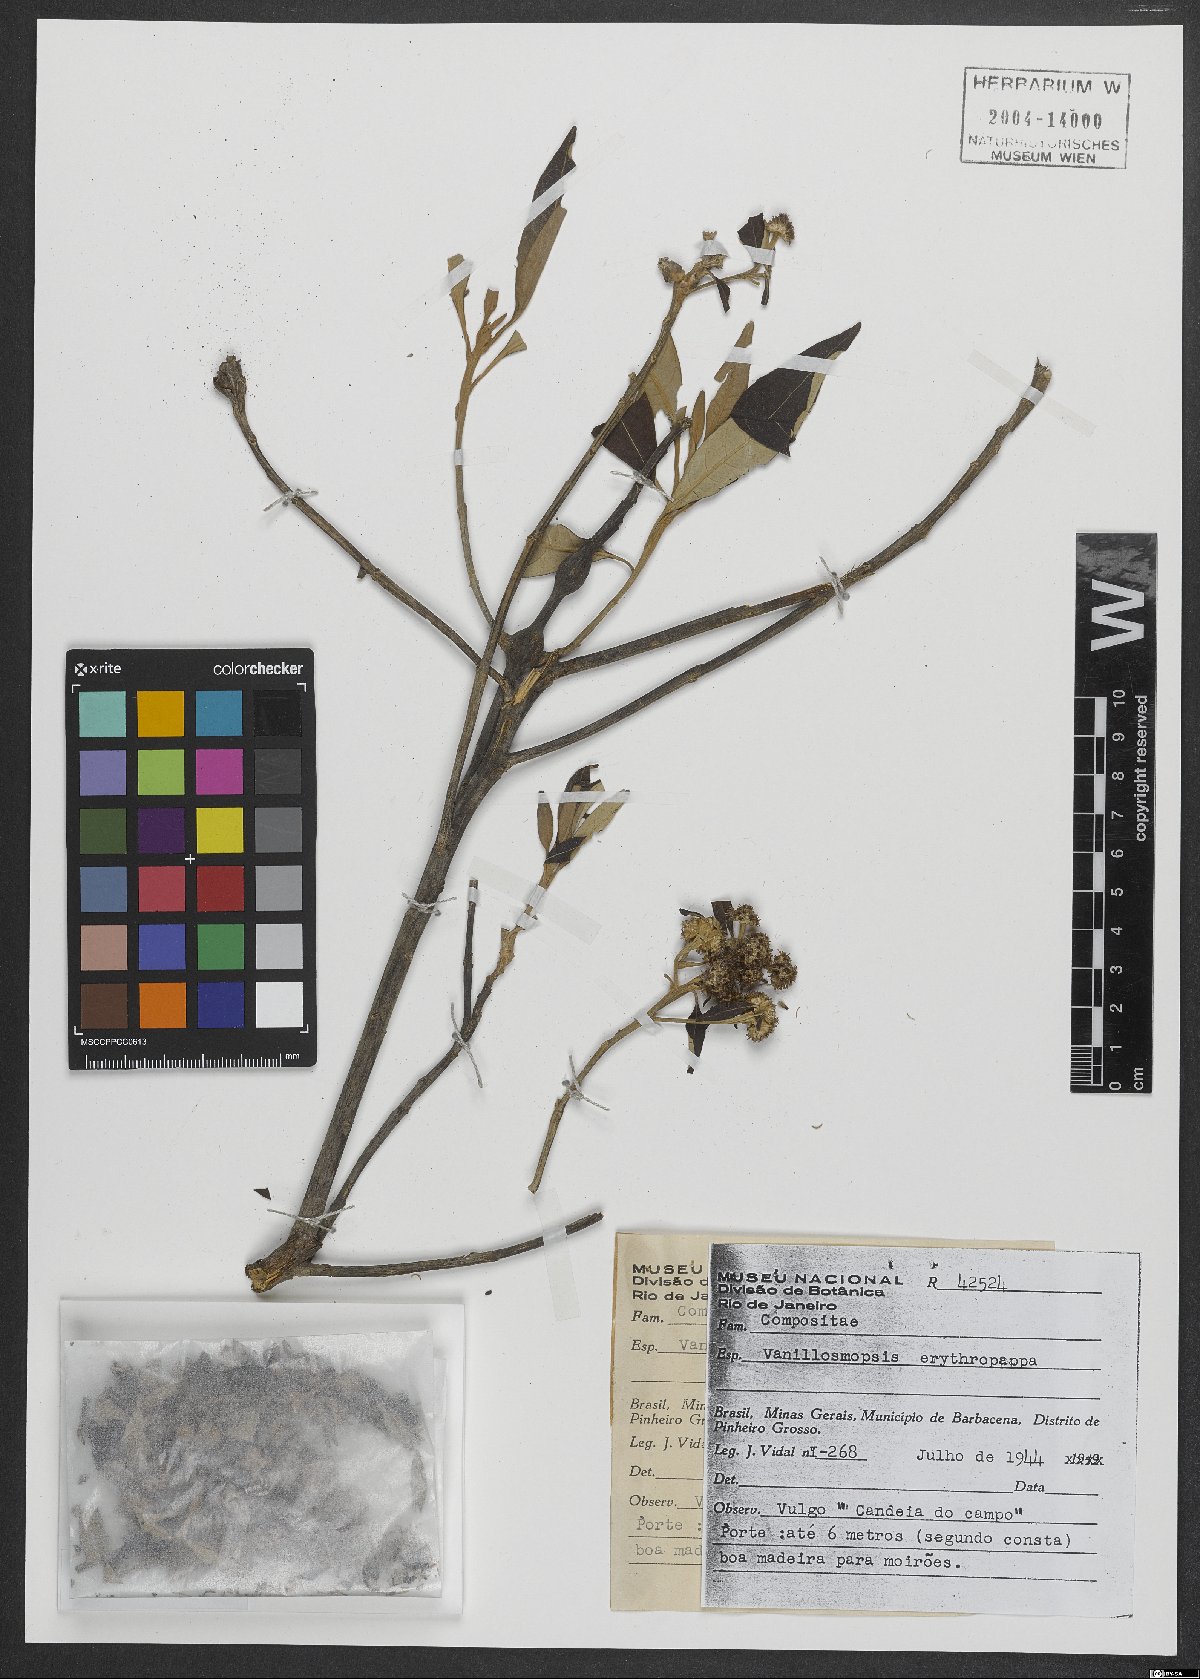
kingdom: Plantae
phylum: Tracheophyta
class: Magnoliopsida
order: Asterales
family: Asteraceae
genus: Eremanthus
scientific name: Eremanthus erythropappus
